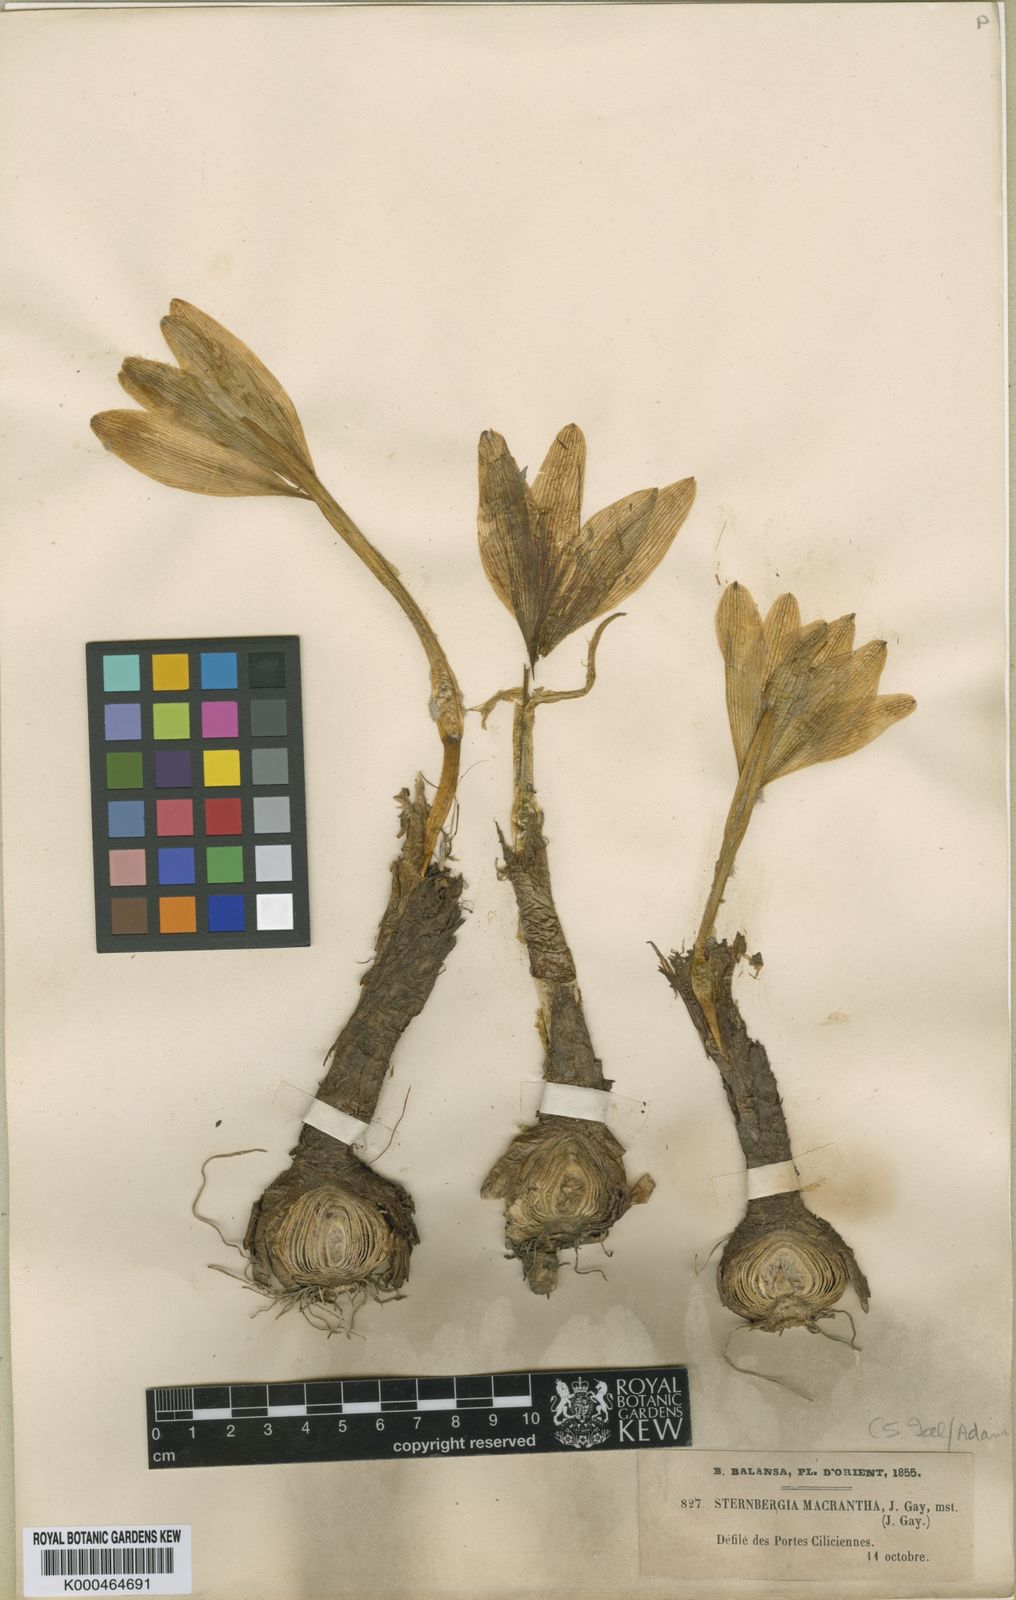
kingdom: Plantae
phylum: Tracheophyta
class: Liliopsida
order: Asparagales
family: Amaryllidaceae
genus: Sternbergia
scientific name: Sternbergia
